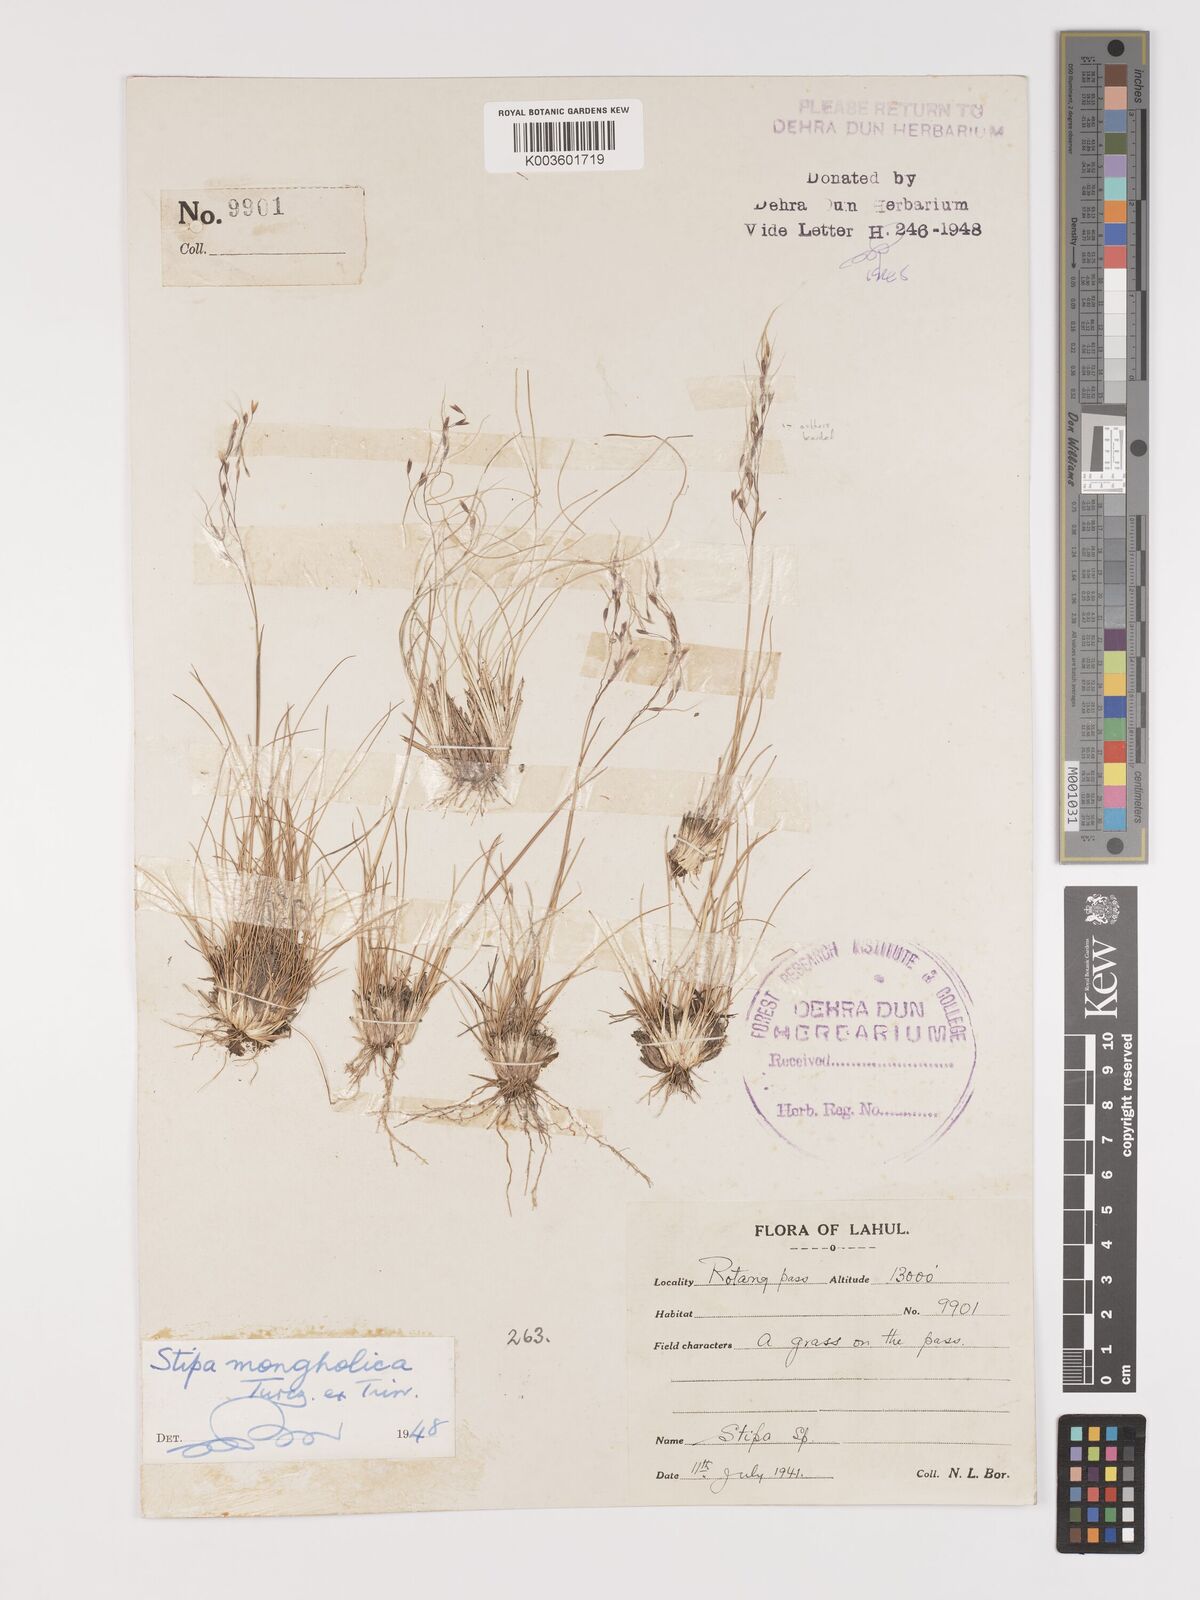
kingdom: Plantae
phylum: Tracheophyta
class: Liliopsida
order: Poales
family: Poaceae
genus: Ptilagrostis
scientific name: Ptilagrostis mongholica
